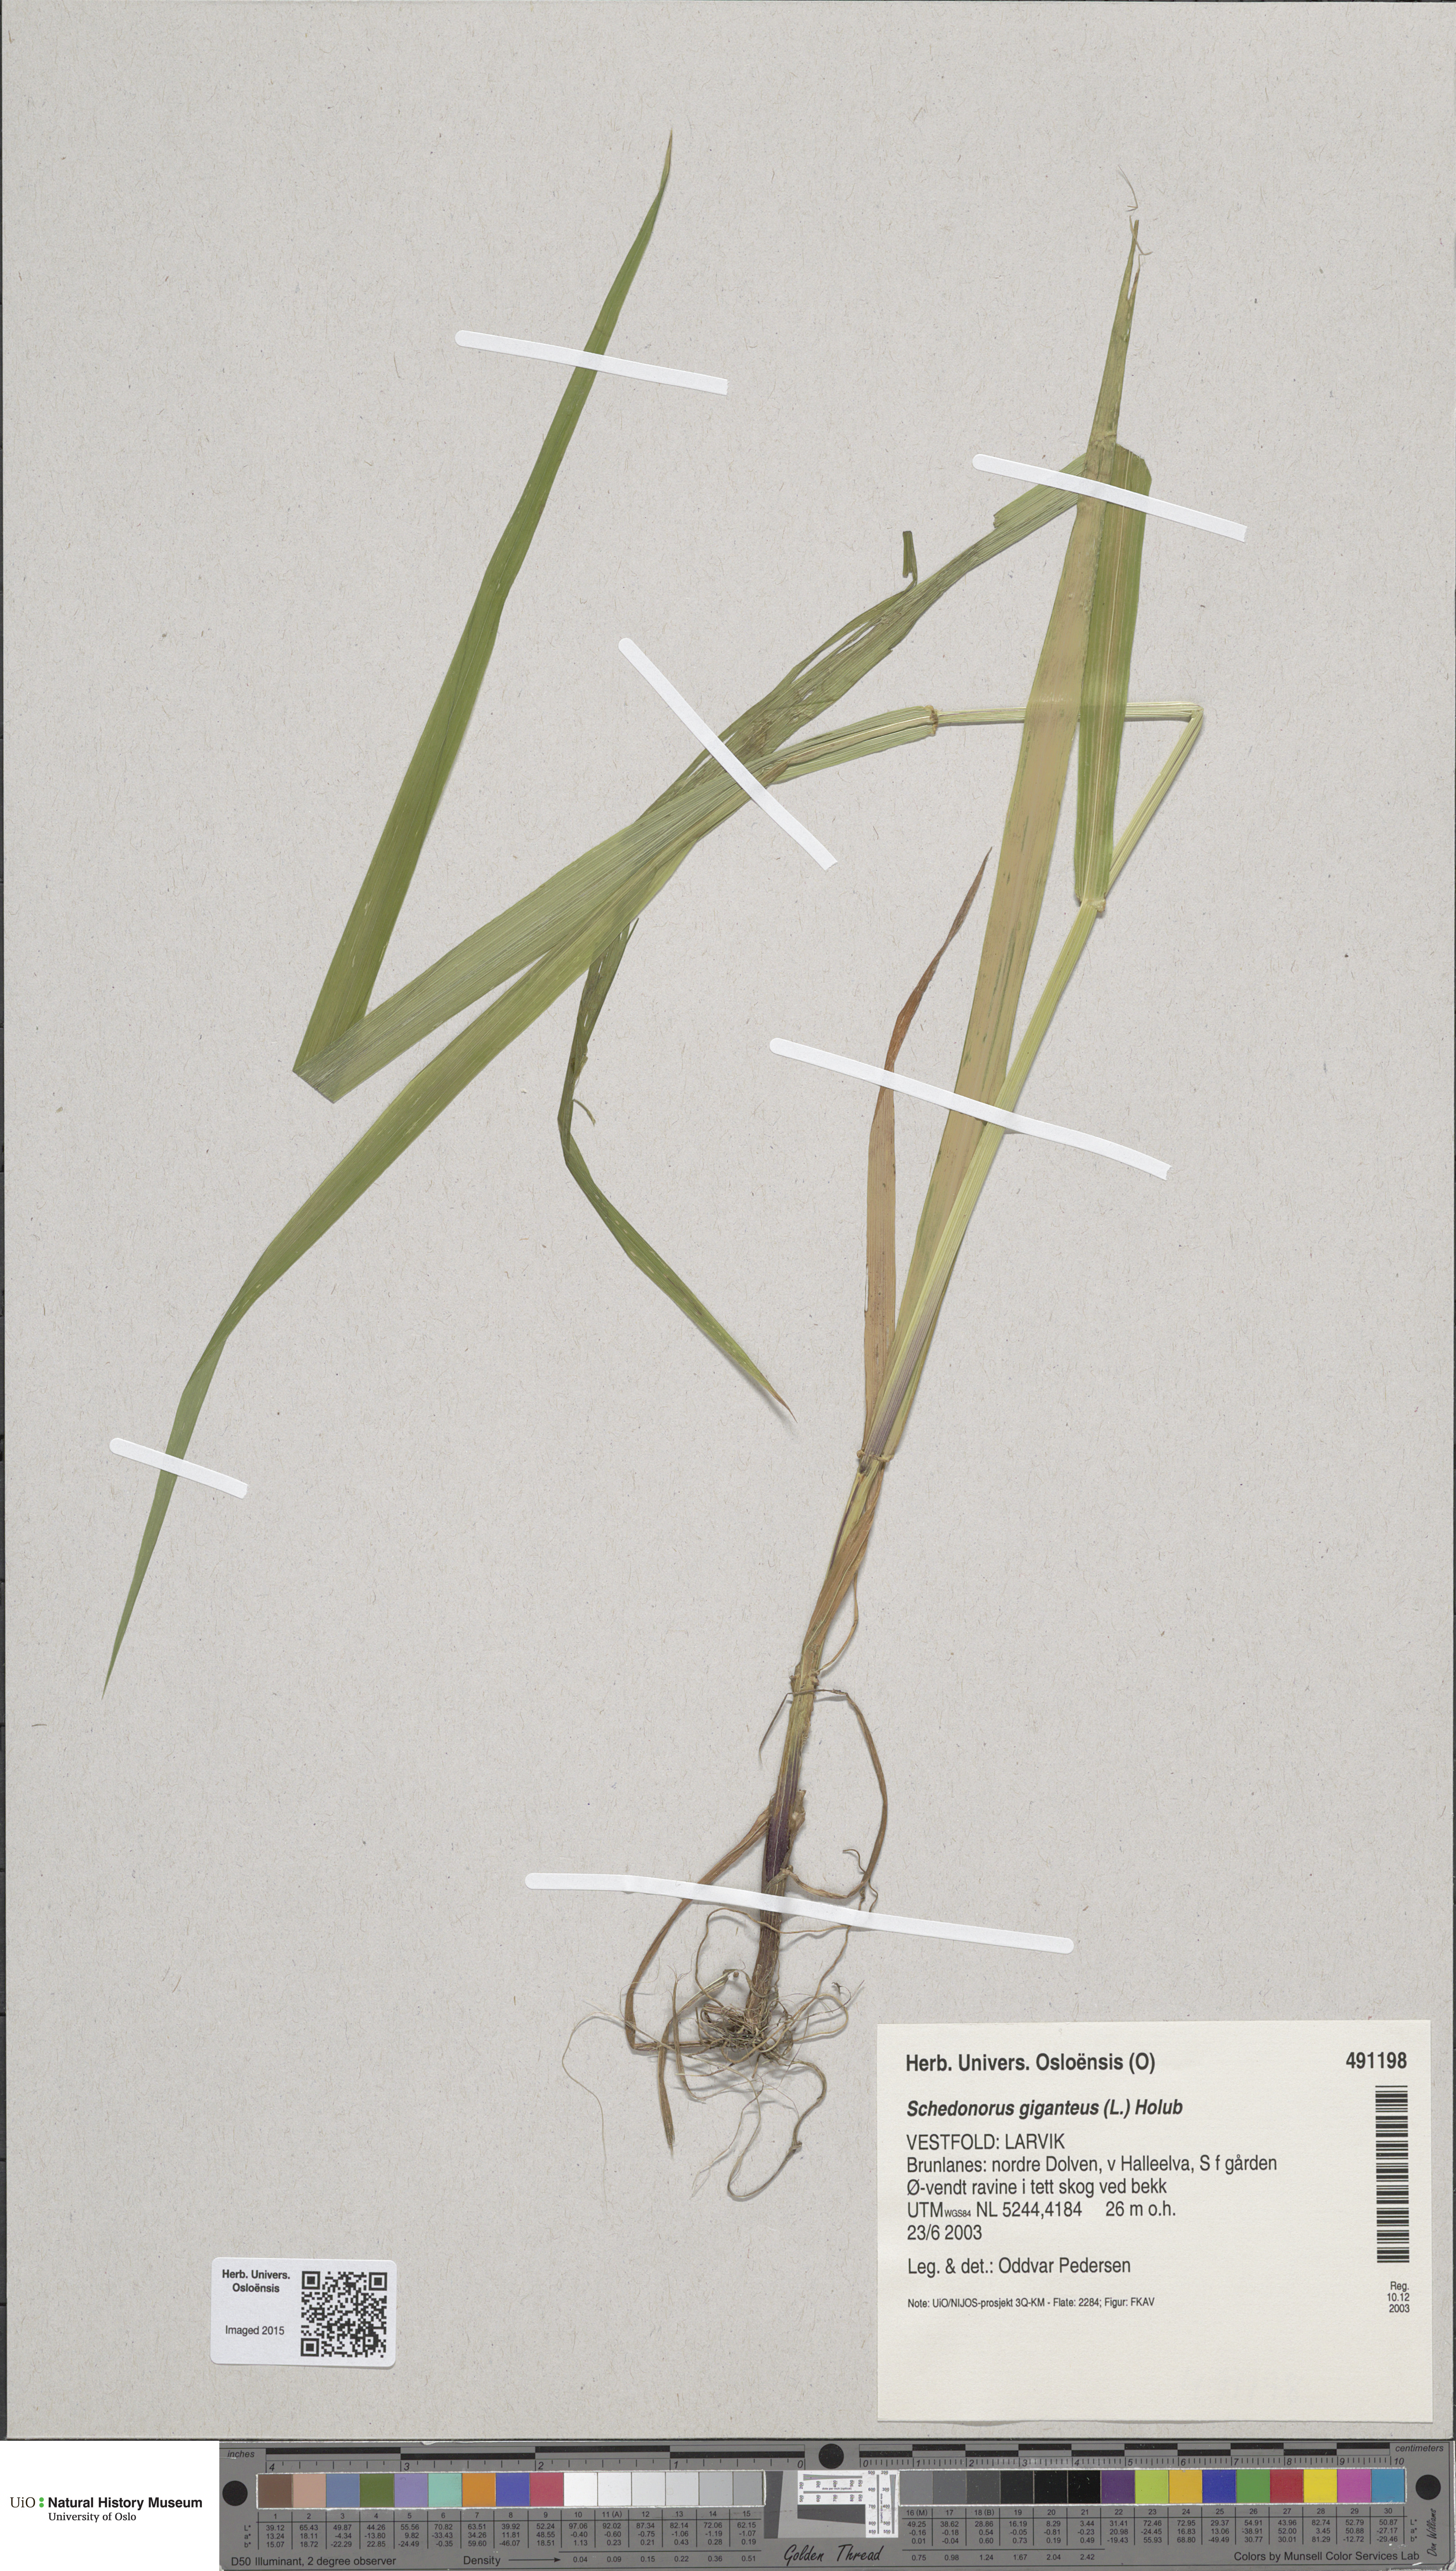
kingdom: Plantae
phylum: Tracheophyta
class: Liliopsida
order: Poales
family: Poaceae
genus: Lolium
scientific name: Lolium giganteum
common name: Giant fescue
